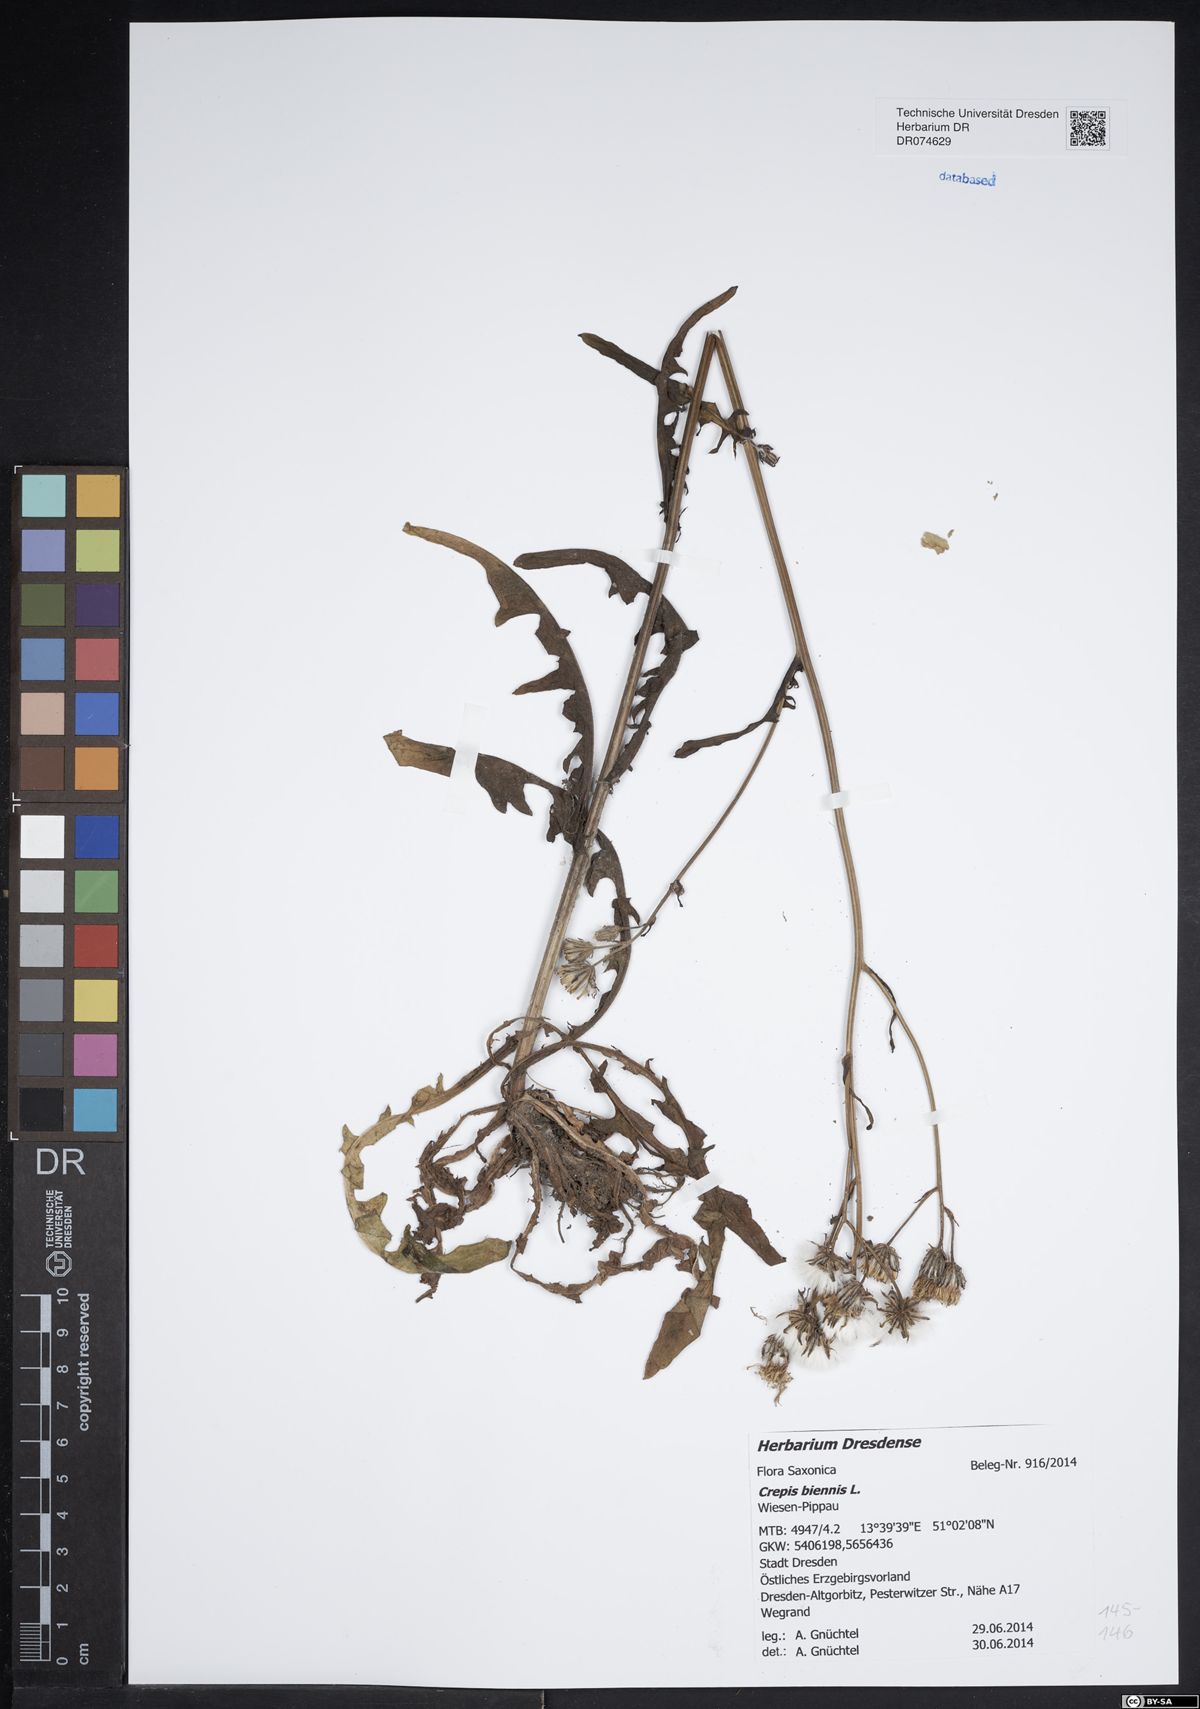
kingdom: Plantae
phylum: Tracheophyta
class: Magnoliopsida
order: Asterales
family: Asteraceae
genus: Crepis
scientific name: Crepis biennis
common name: Rough hawk's-beard
